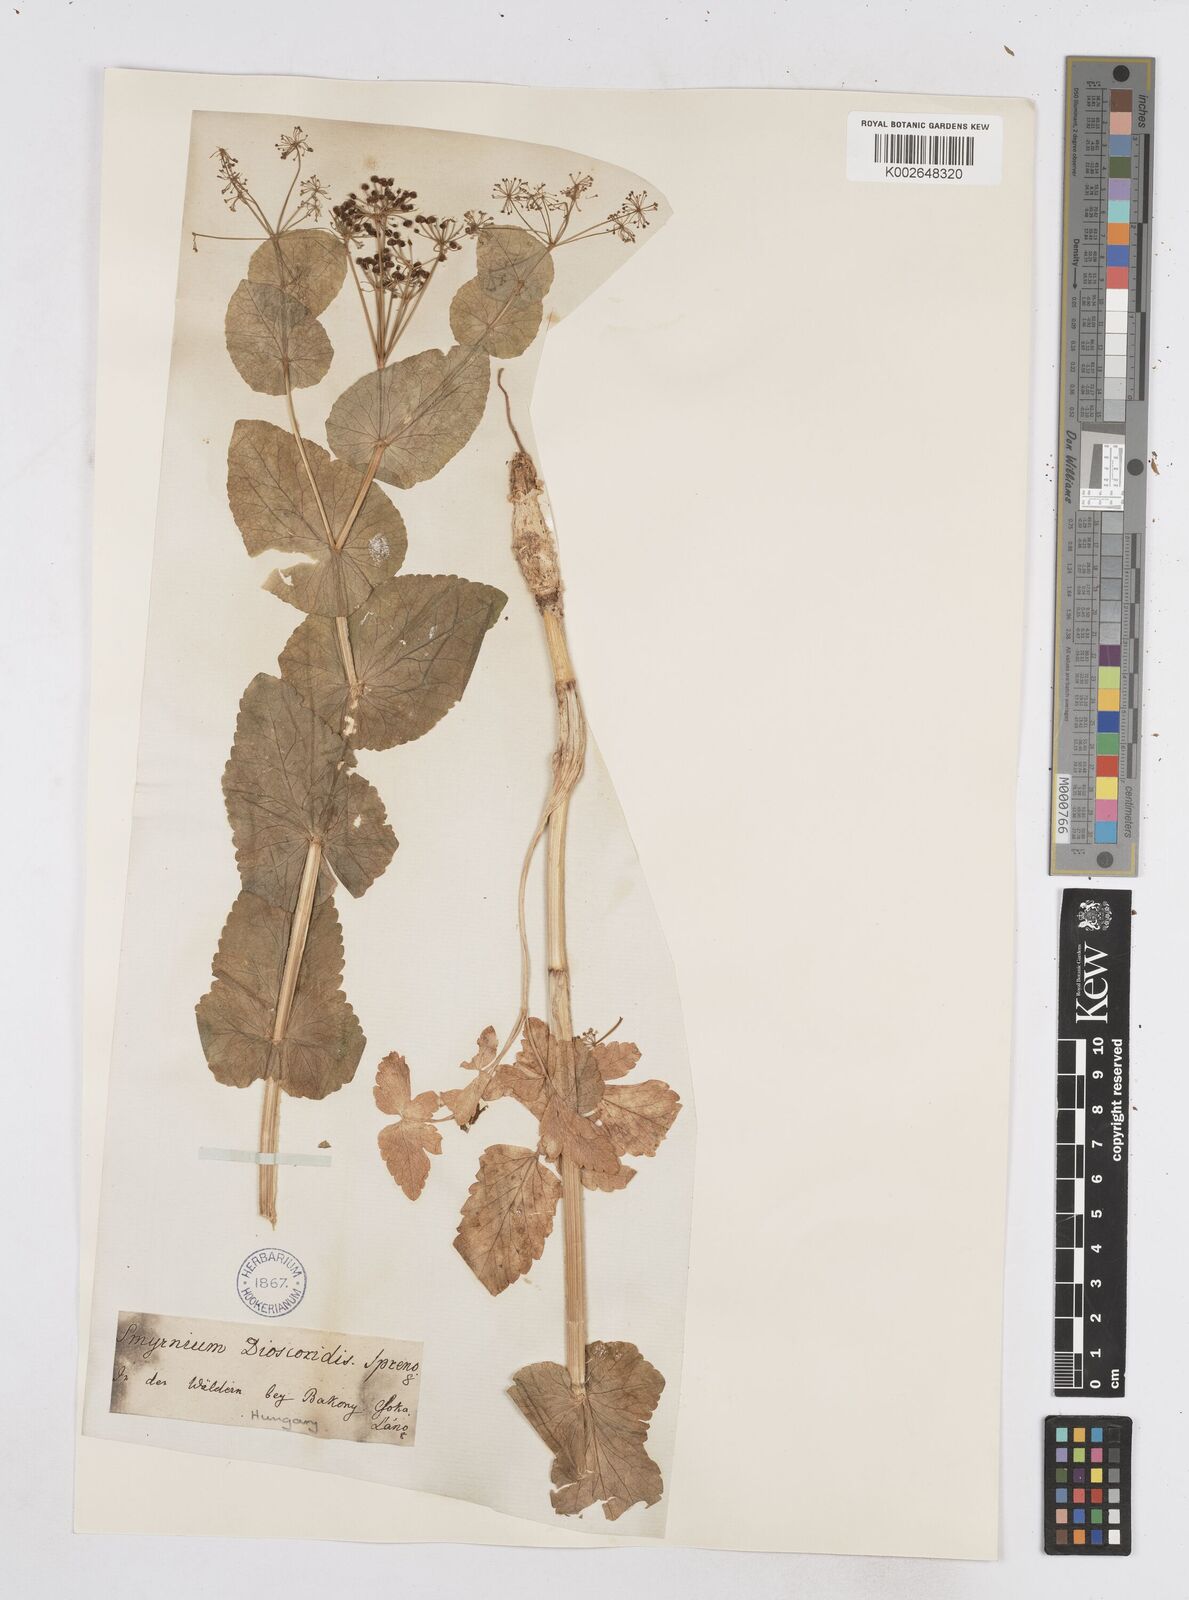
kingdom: Plantae
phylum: Tracheophyta
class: Magnoliopsida
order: Apiales
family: Apiaceae
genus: Smyrnium
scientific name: Smyrnium perfoliatum
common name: Perfoliate alexanders
